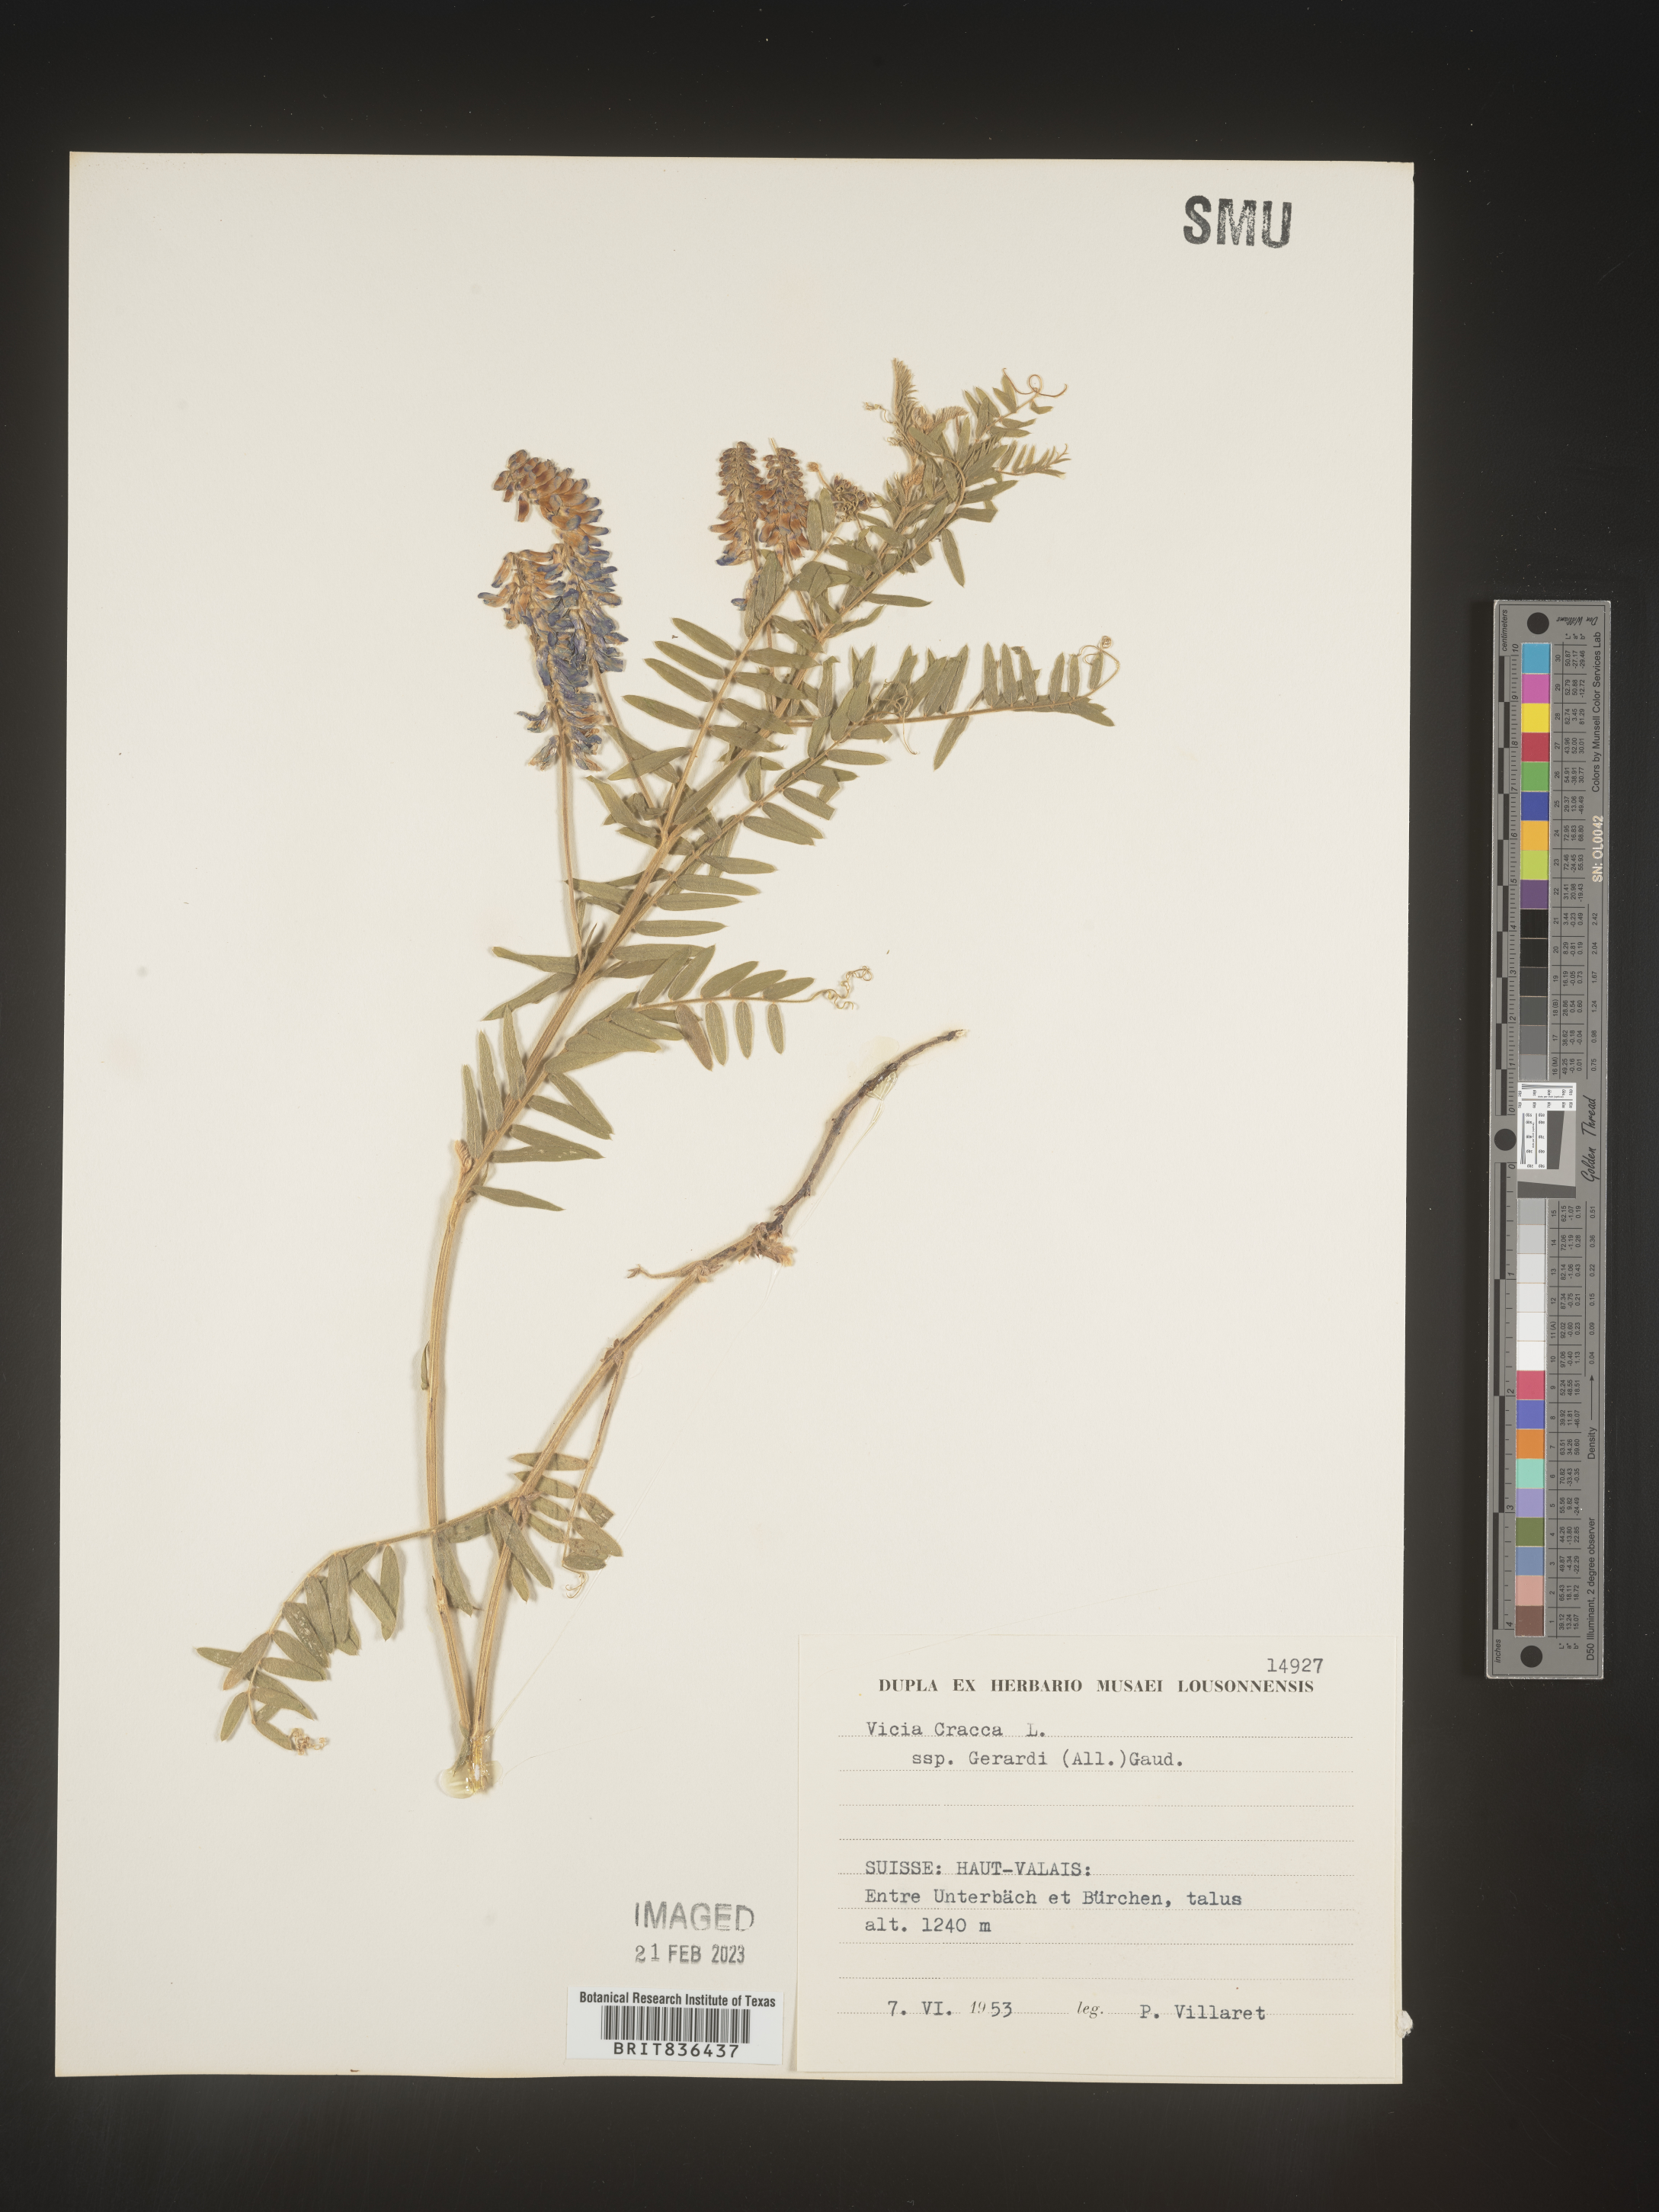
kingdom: Plantae
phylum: Tracheophyta
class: Magnoliopsida
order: Fabales
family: Fabaceae
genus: Vicia
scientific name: Vicia
